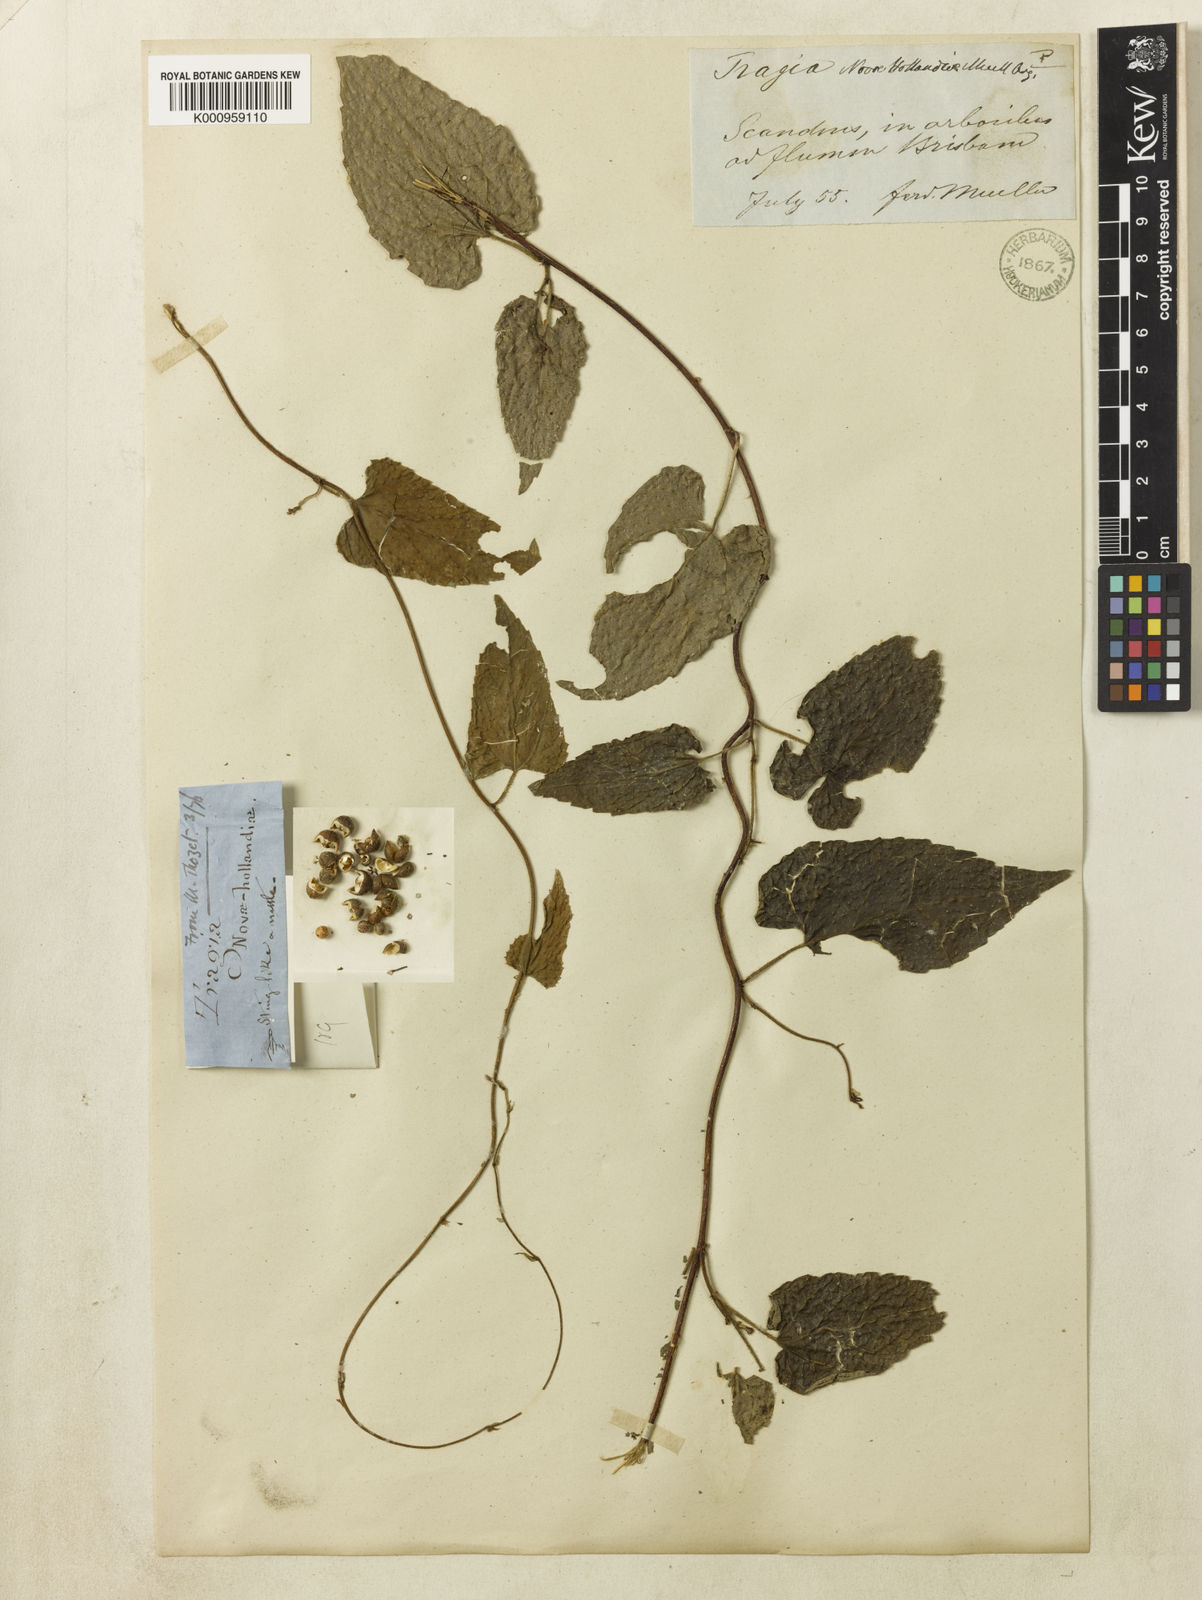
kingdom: Plantae
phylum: Tracheophyta
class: Magnoliopsida
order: Malpighiales
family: Euphorbiaceae
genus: Tragia
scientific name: Tragia
